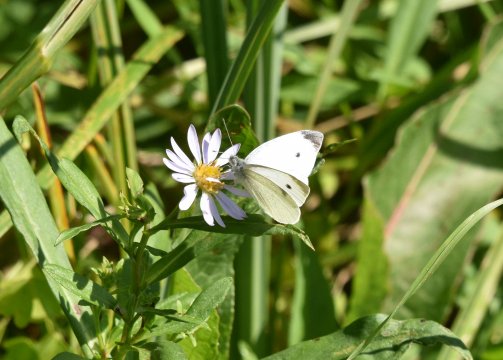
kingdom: Animalia
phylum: Arthropoda
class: Insecta
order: Lepidoptera
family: Pieridae
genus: Pieris
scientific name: Pieris rapae
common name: Cabbage White
